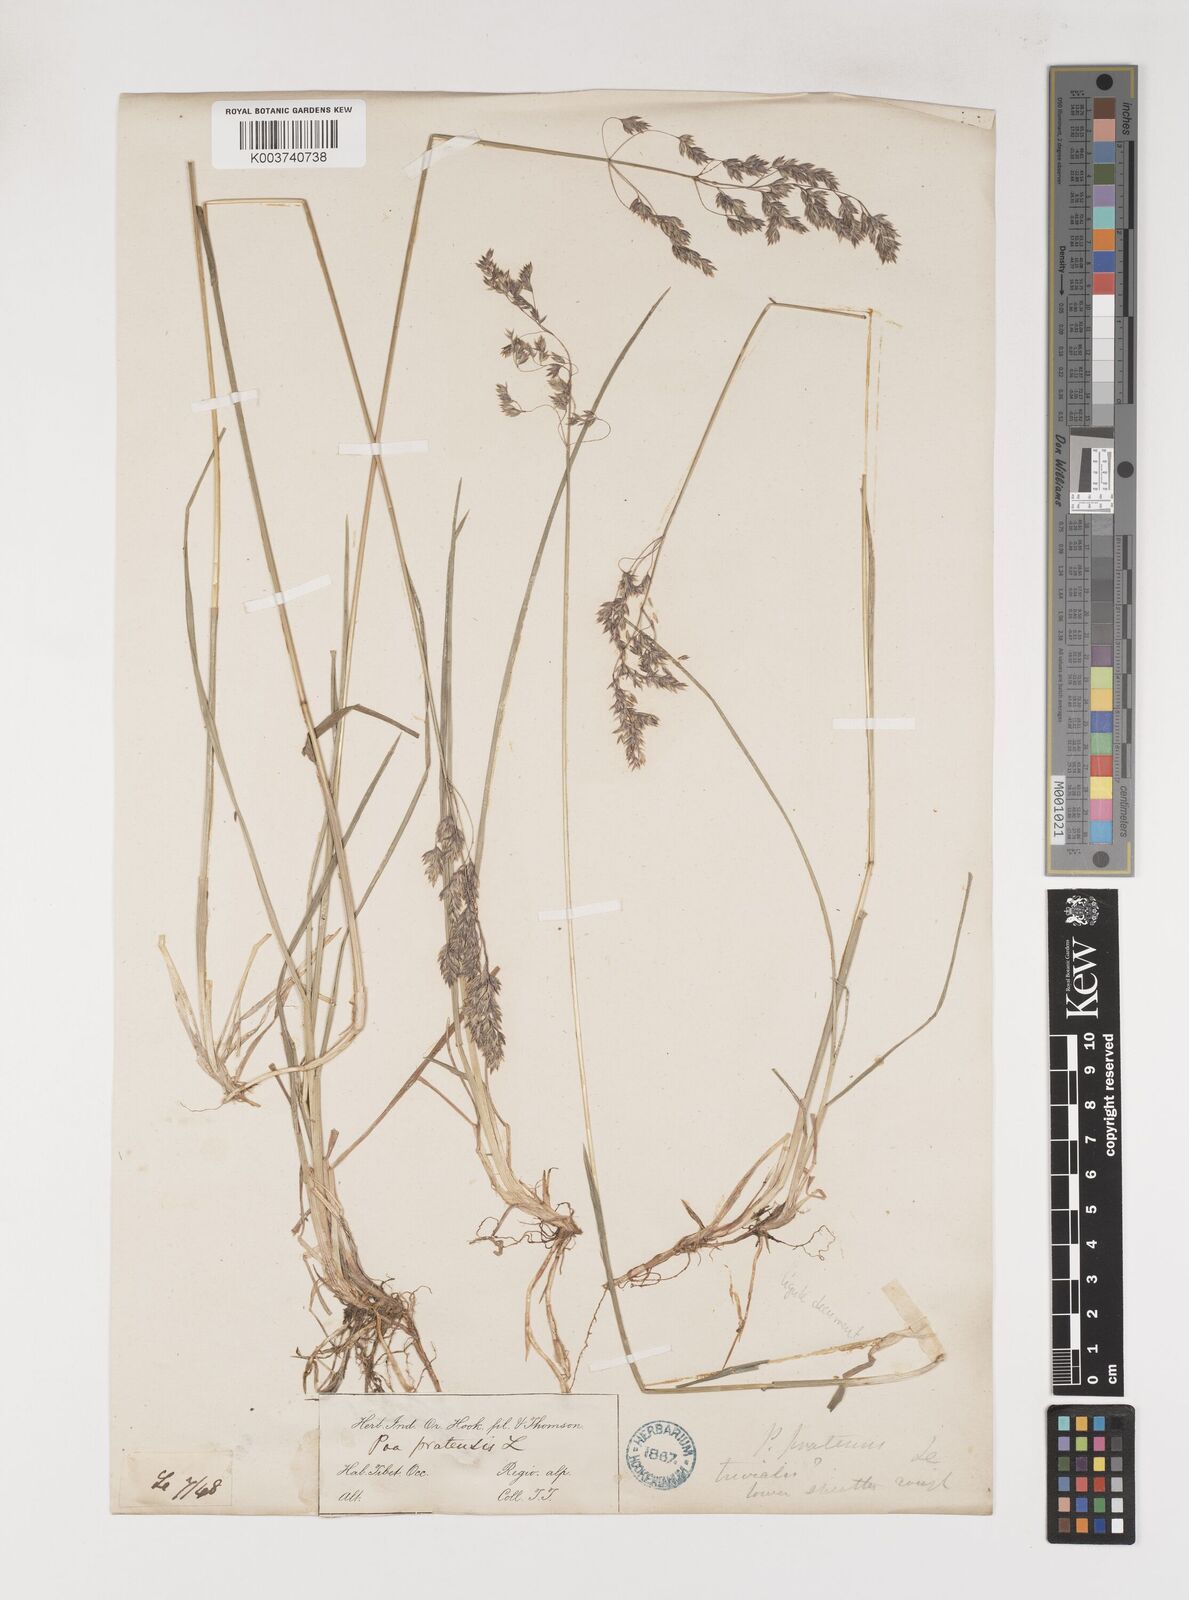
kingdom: Plantae
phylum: Tracheophyta
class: Liliopsida
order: Poales
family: Poaceae
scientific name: Poaceae
